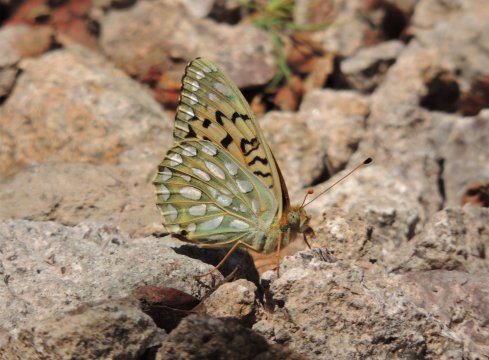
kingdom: Animalia
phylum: Arthropoda
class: Insecta
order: Lepidoptera
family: Nymphalidae
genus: Speyeria
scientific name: Speyeria callippe
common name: Callippe Fritillary
